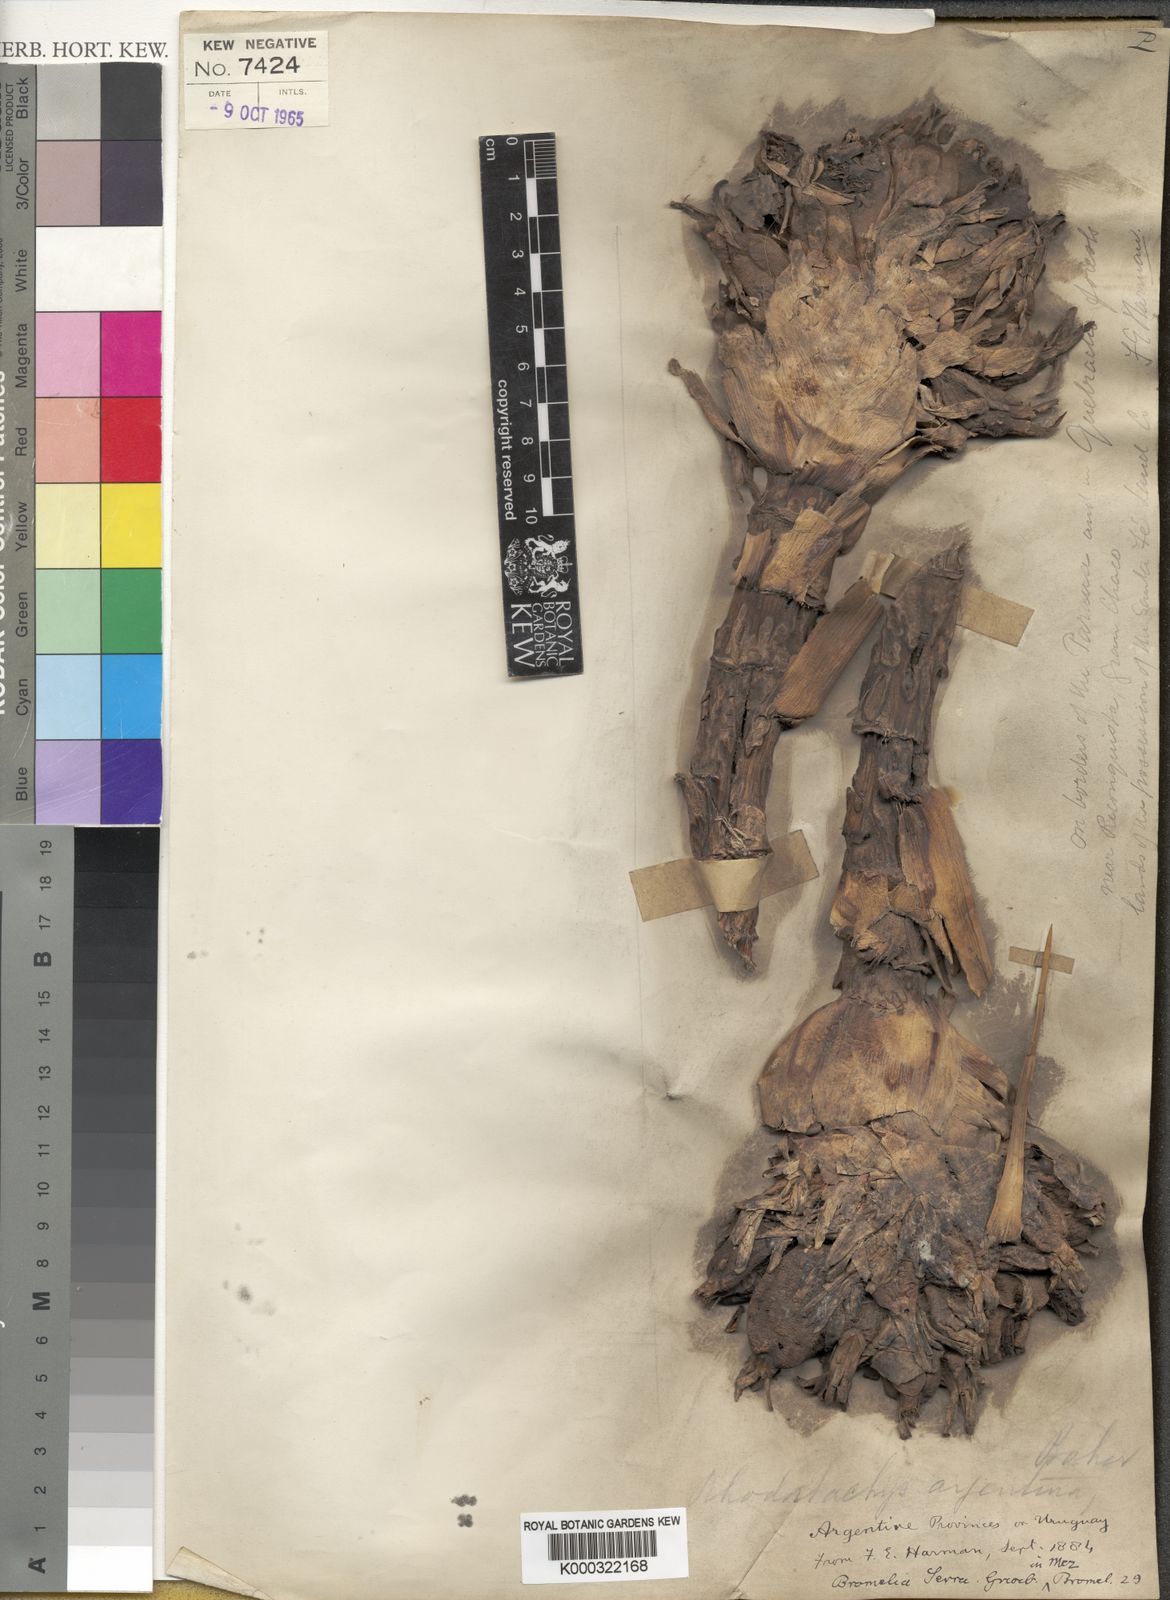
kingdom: Plantae
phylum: Tracheophyta
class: Liliopsida
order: Poales
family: Bromeliaceae
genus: Bromelia
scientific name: Bromelia serra
